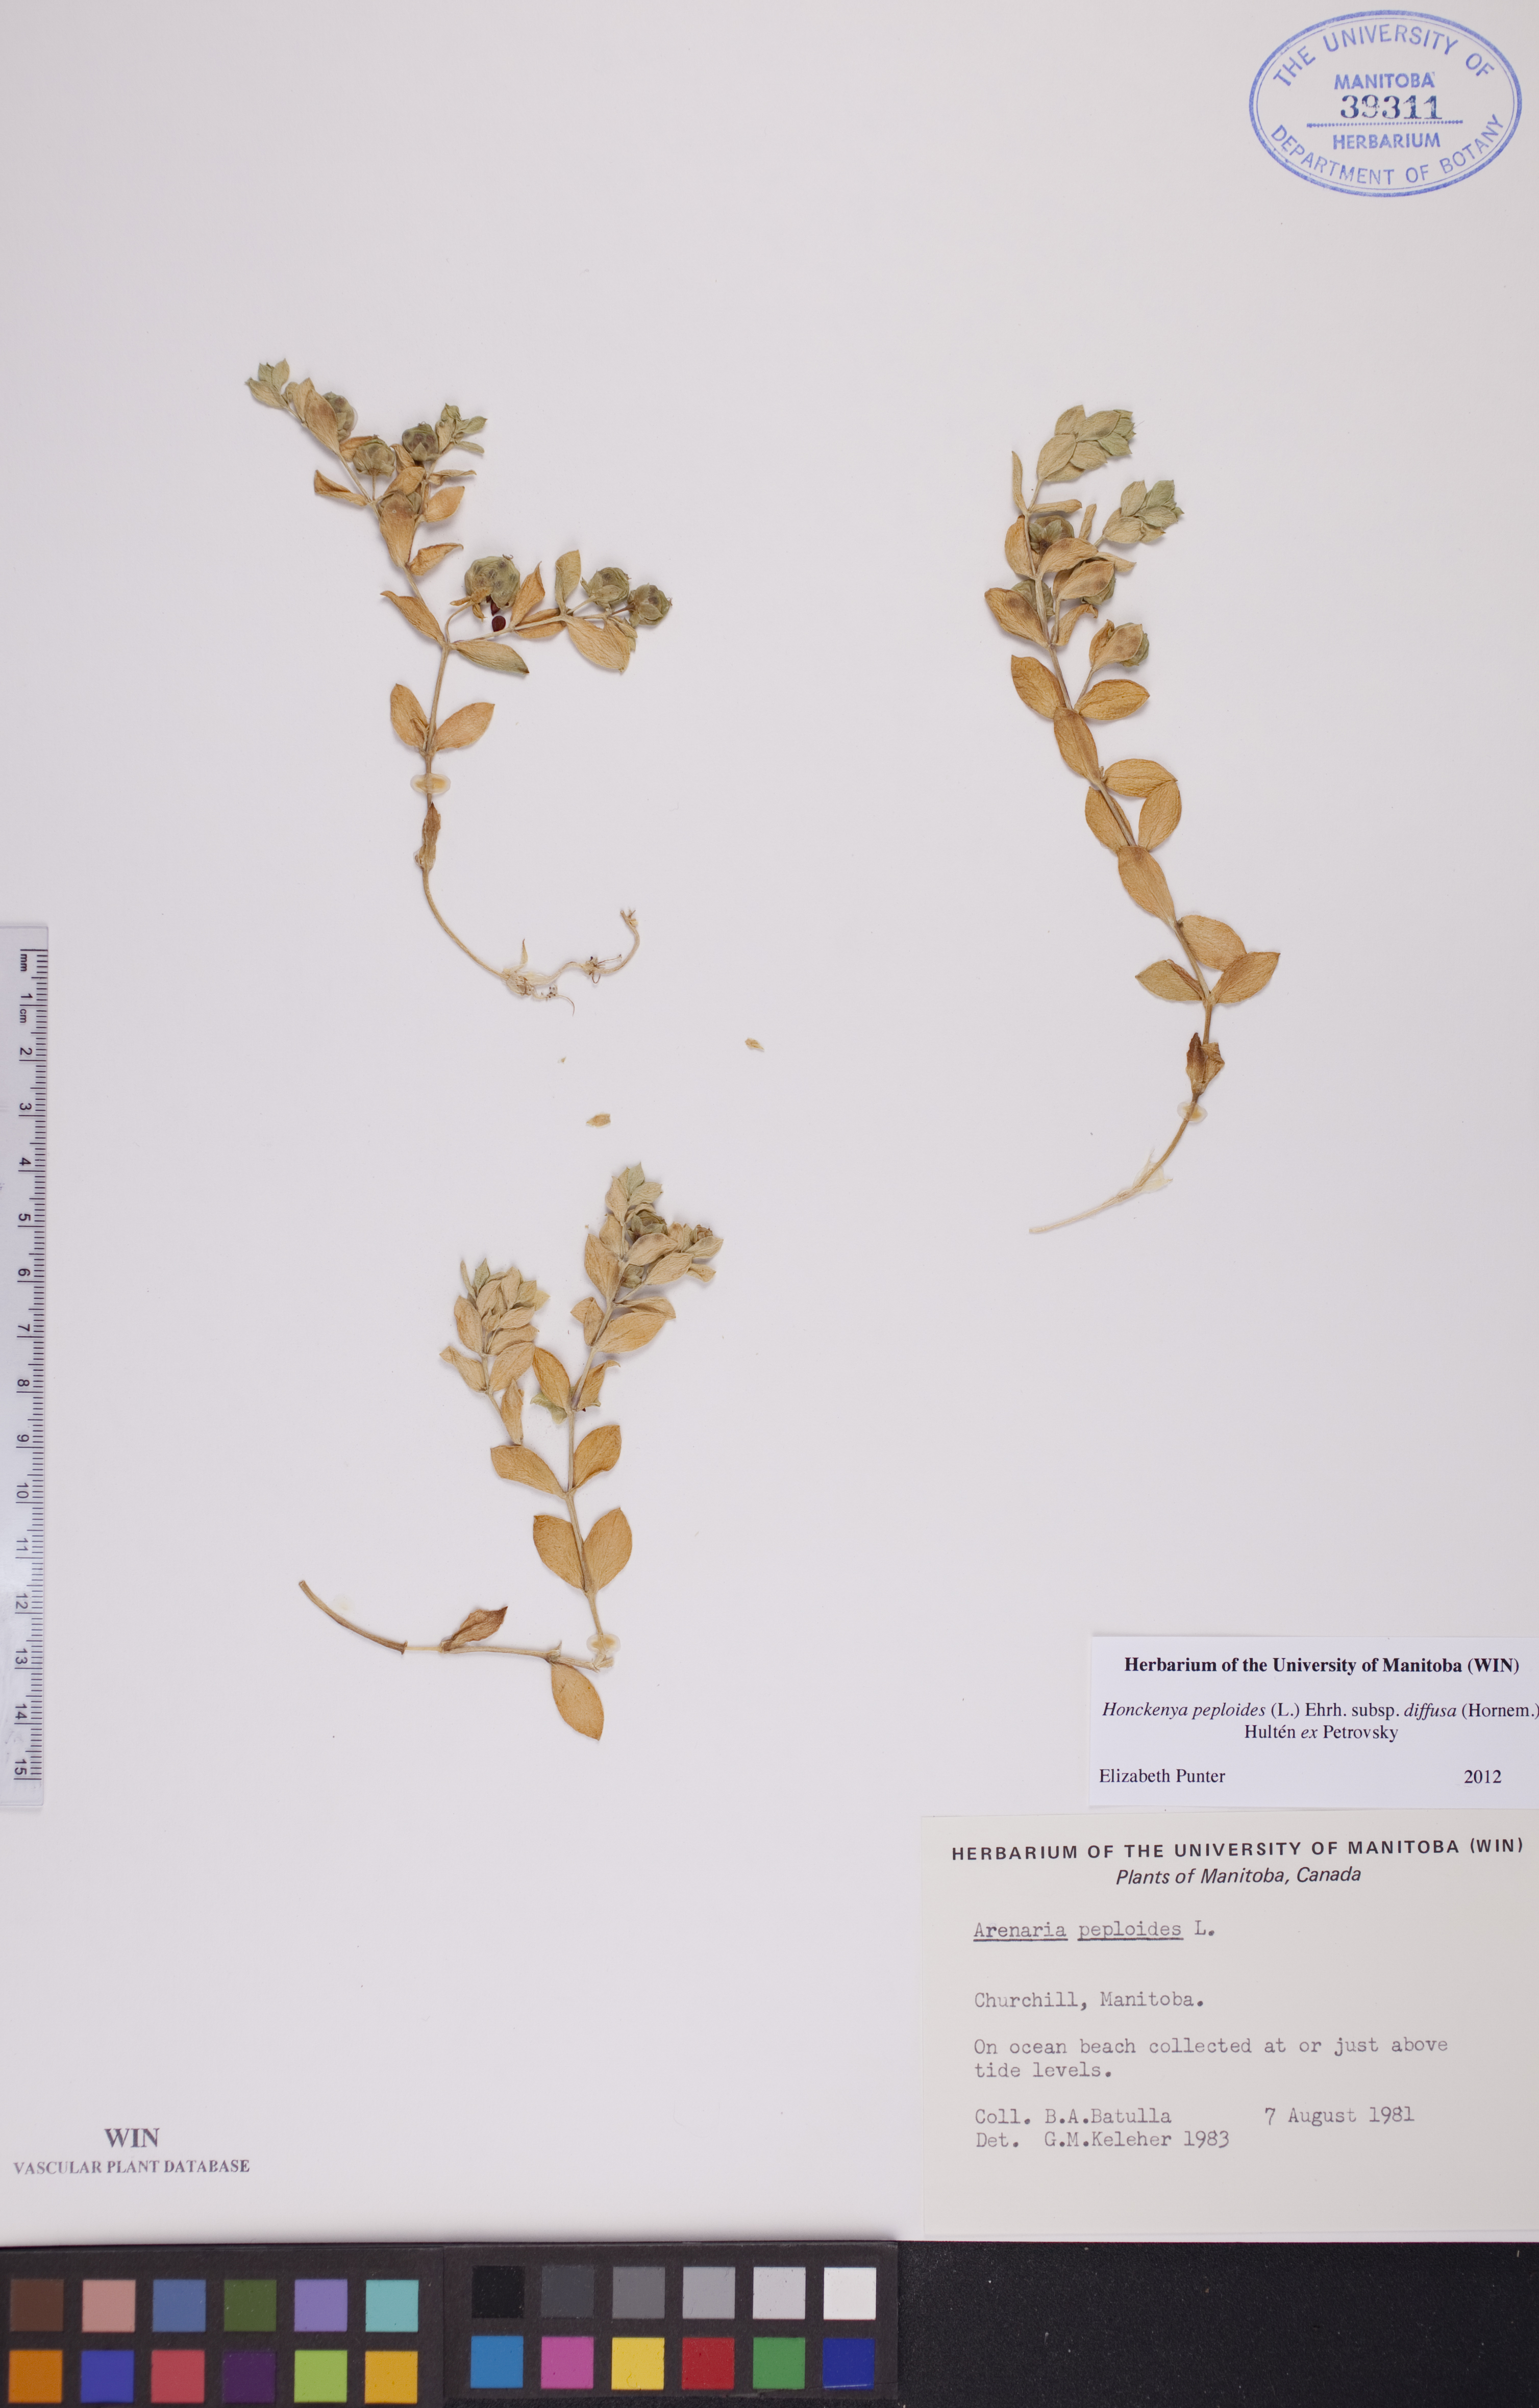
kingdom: Plantae
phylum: Tracheophyta
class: Magnoliopsida
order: Caryophyllales
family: Caryophyllaceae
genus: Honckenya
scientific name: Honckenya peploides
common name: Sea sandwort
